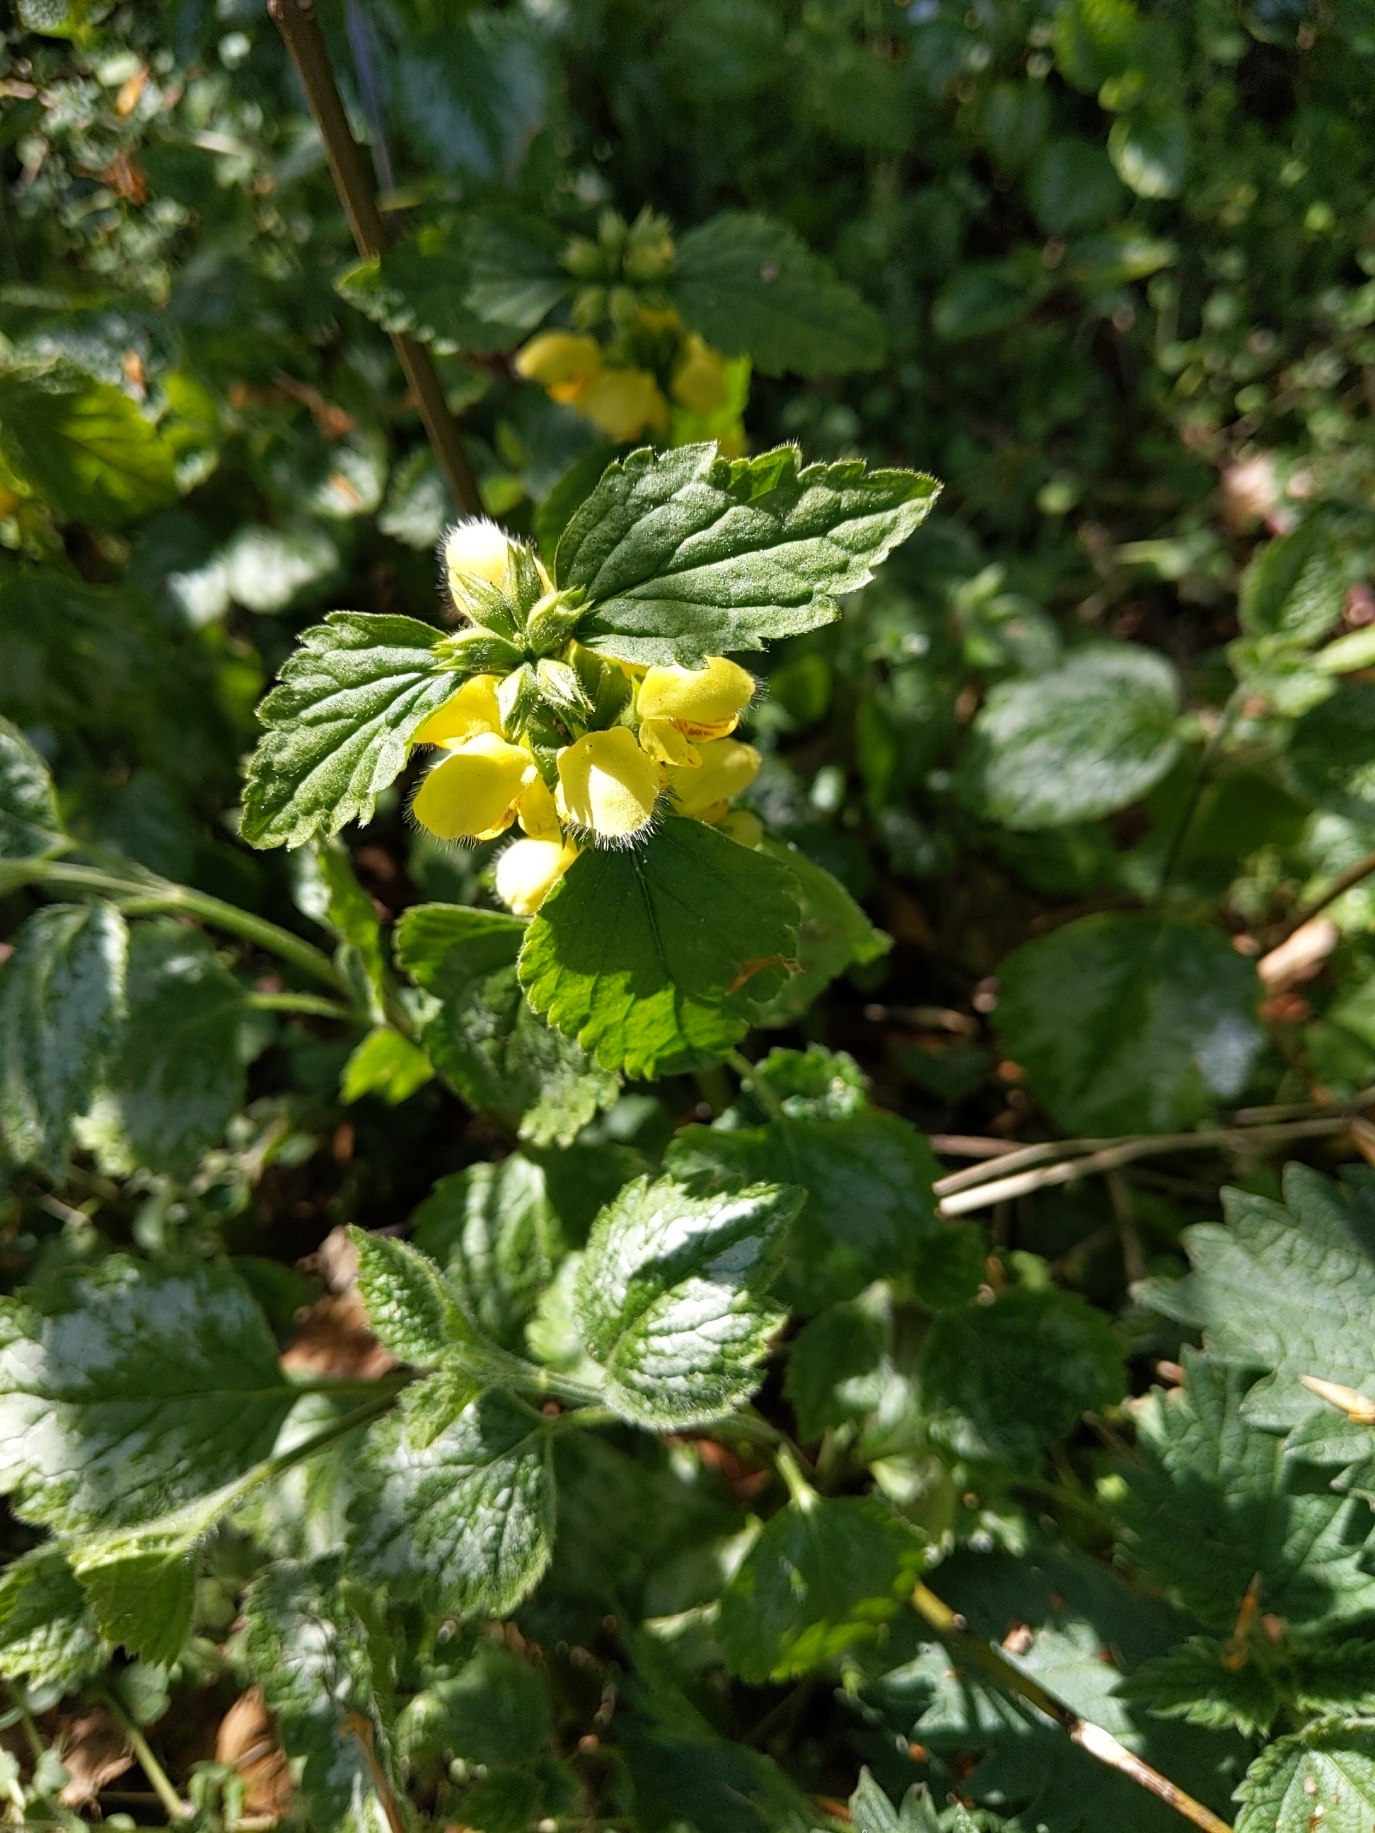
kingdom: Plantae
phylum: Tracheophyta
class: Magnoliopsida
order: Lamiales
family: Lamiaceae
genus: Lamium
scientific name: Lamium galeobdolon
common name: Have-guldnælde
